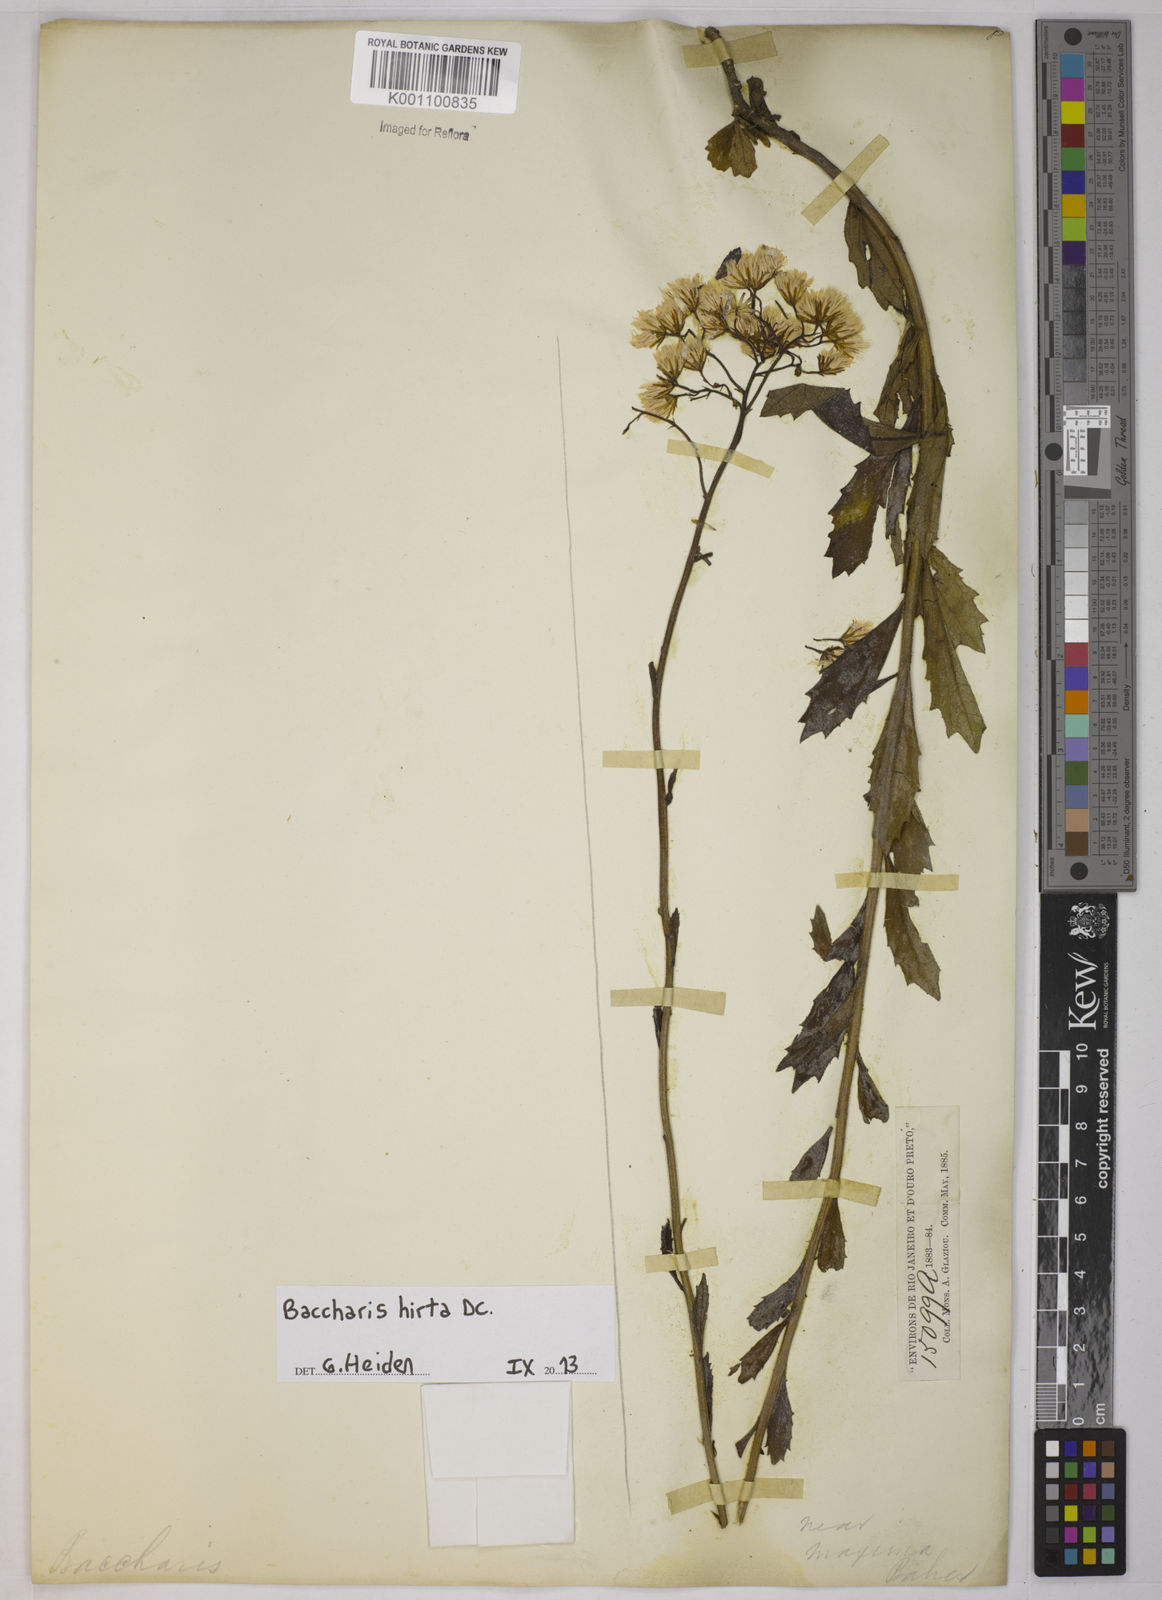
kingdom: Plantae
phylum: Tracheophyta
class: Magnoliopsida
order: Asterales
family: Asteraceae
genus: Baccharis
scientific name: Baccharis hirta
